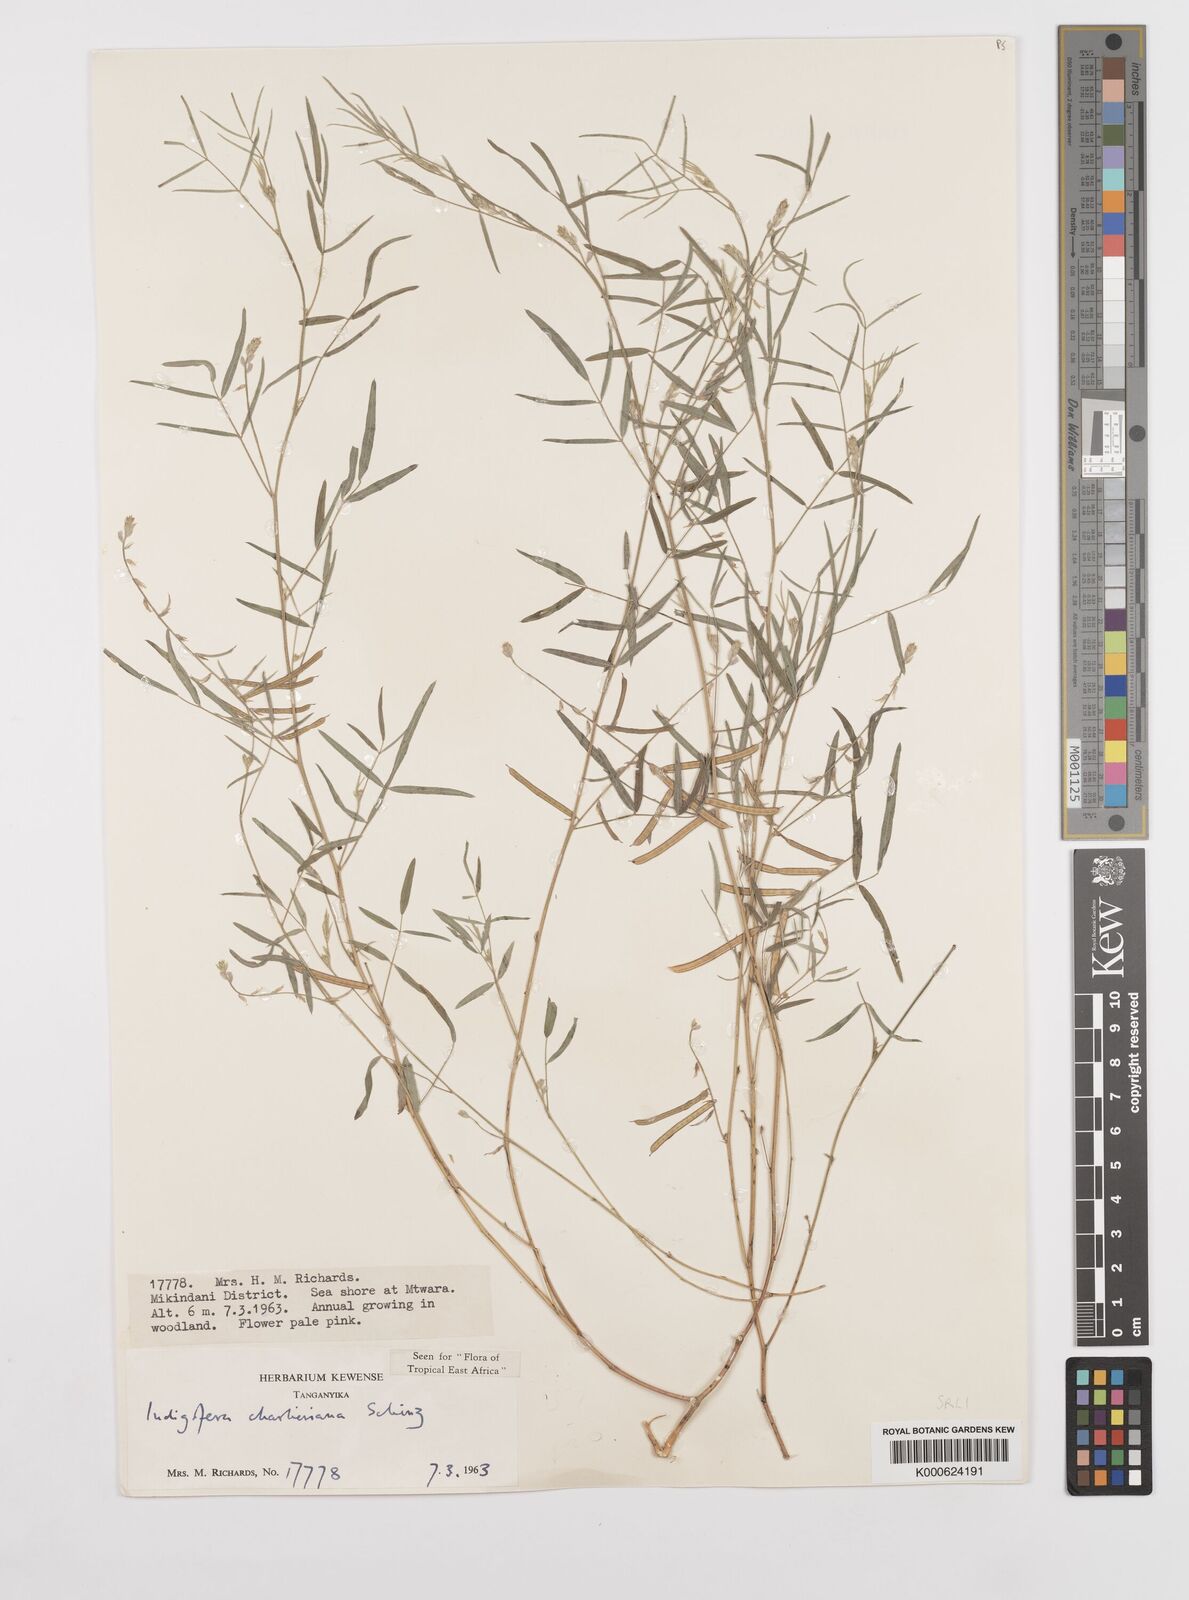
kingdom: Plantae
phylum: Tracheophyta
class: Magnoliopsida
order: Fabales
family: Fabaceae
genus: Indigofera
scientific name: Indigofera charlieriana
